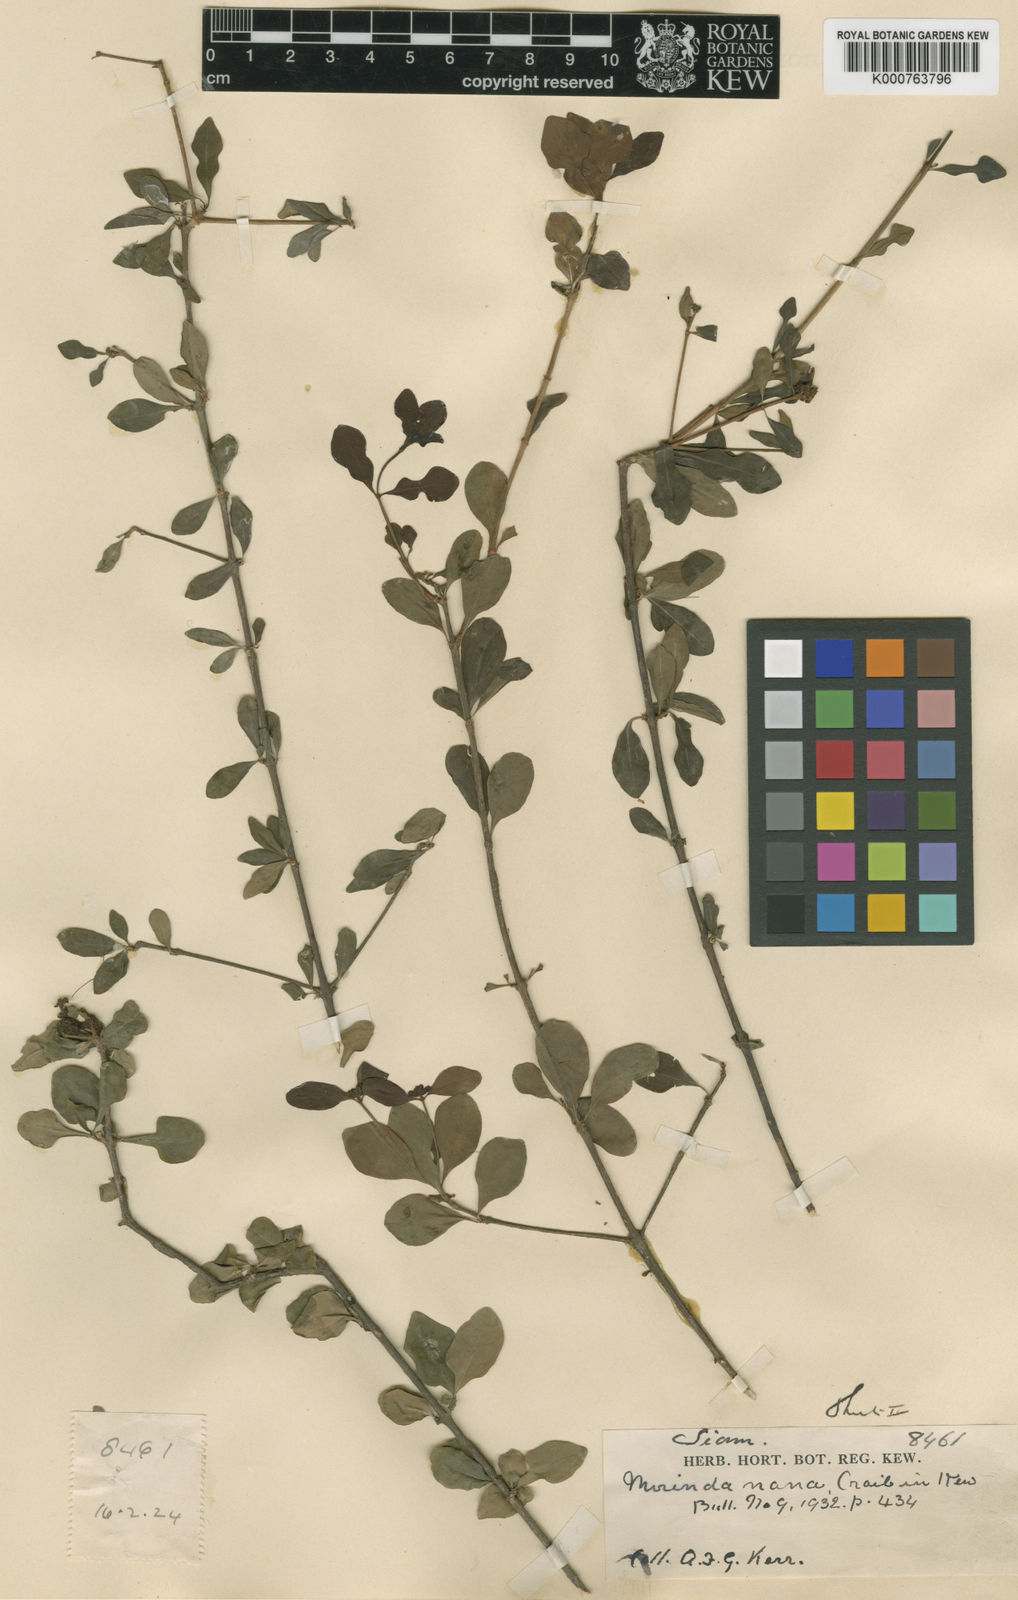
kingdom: Plantae
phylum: Tracheophyta
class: Magnoliopsida
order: Gentianales
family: Rubiaceae
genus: Morinda
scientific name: Morinda nana
